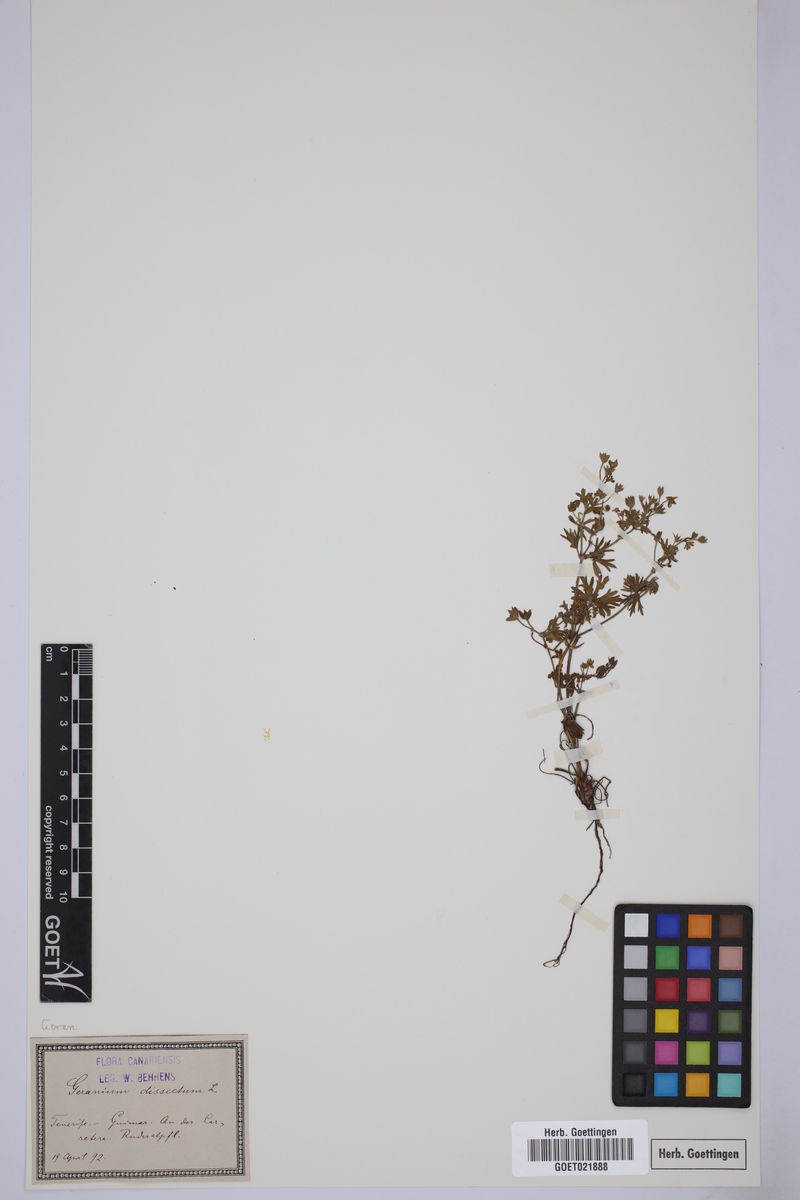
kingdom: Plantae
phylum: Tracheophyta
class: Magnoliopsida
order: Geraniales
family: Geraniaceae
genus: Geranium
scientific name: Geranium dissectum
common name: Cut-leaved crane's-bill
